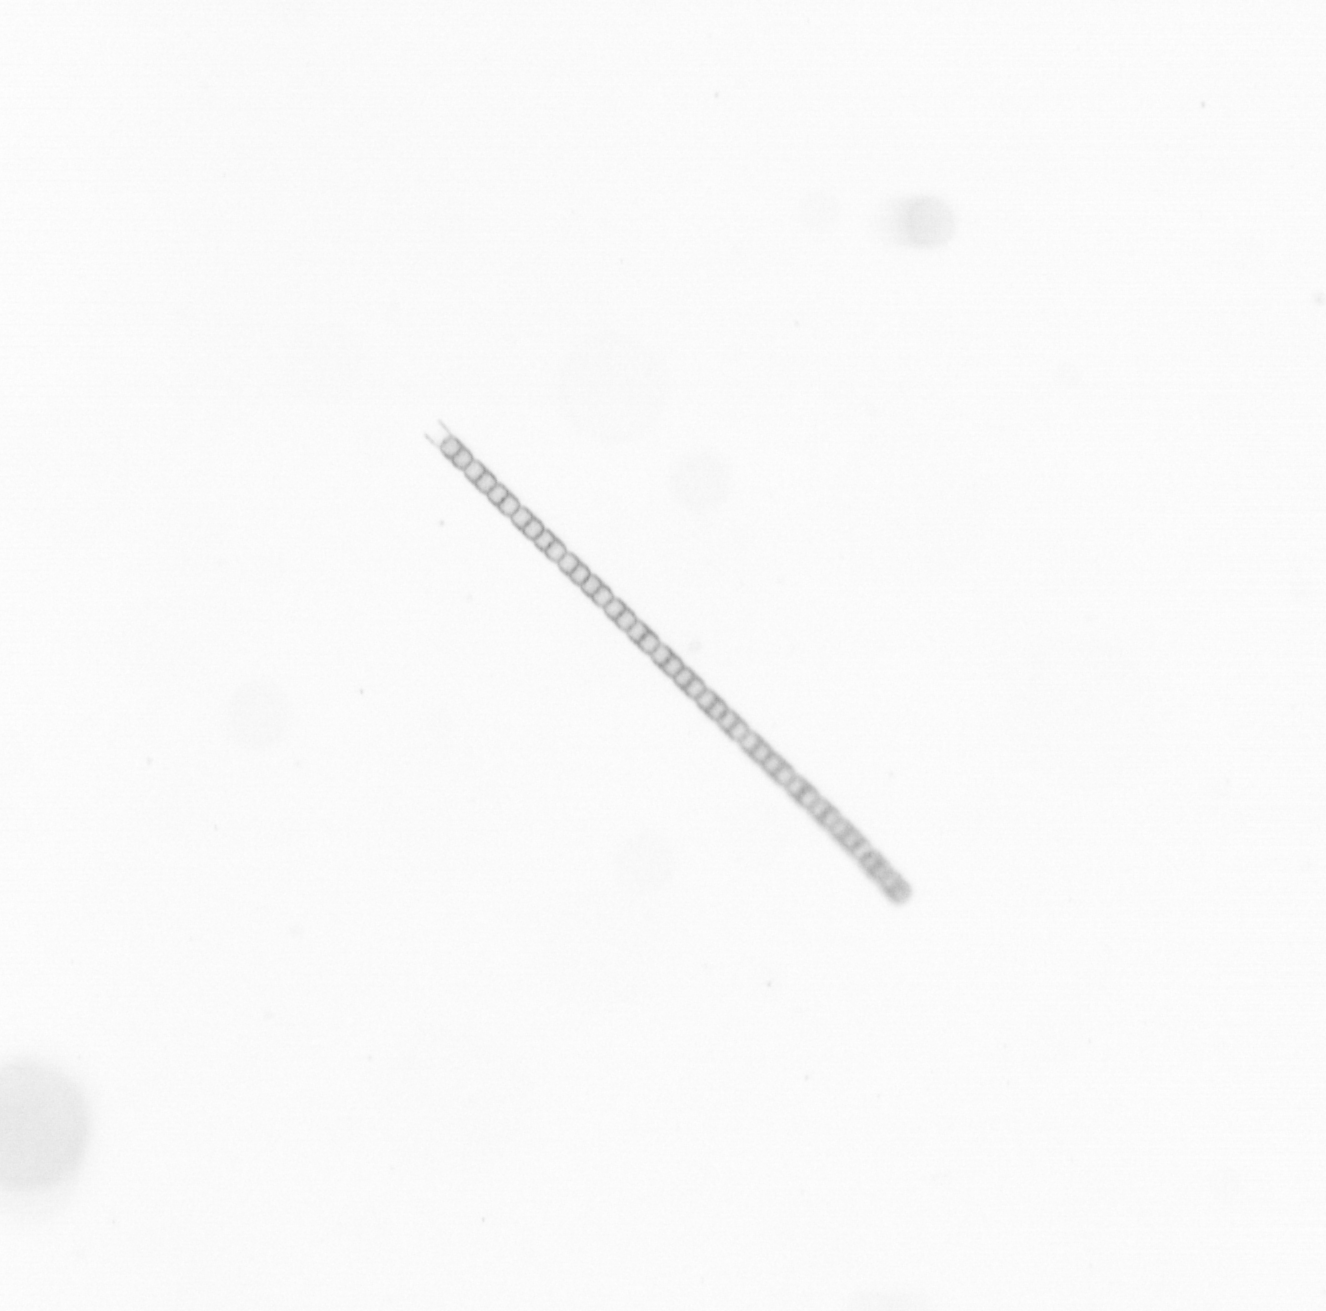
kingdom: Chromista
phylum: Ochrophyta
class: Bacillariophyceae
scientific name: Bacillariophyceae
